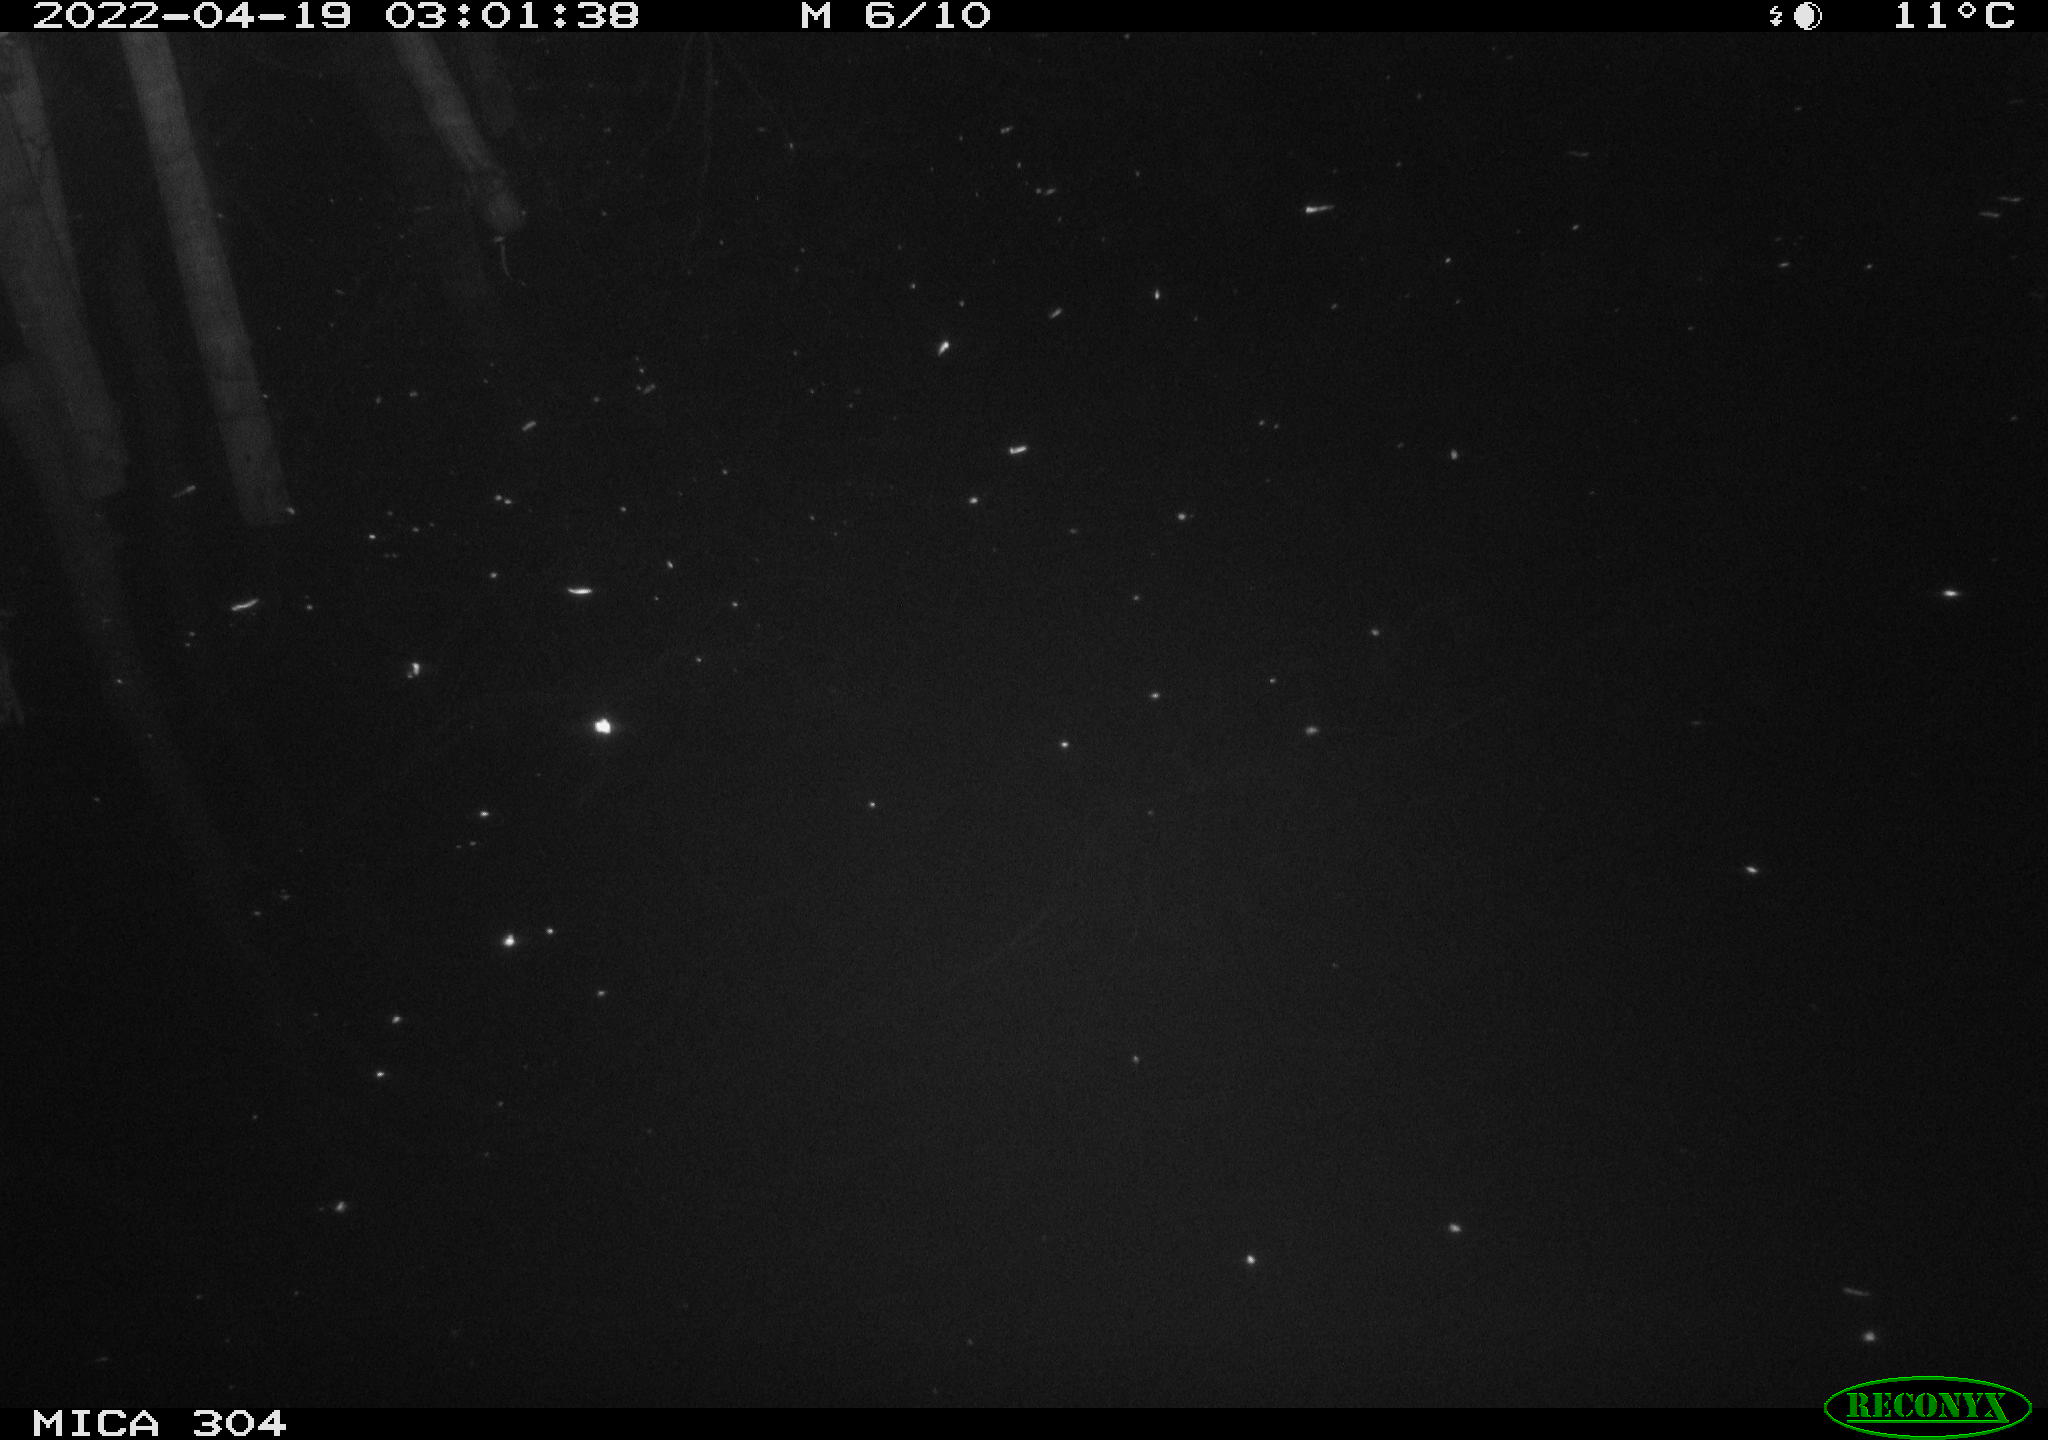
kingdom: Animalia
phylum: Chordata
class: Aves
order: Anseriformes
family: Anatidae
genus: Anas
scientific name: Anas platyrhynchos
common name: Mallard
